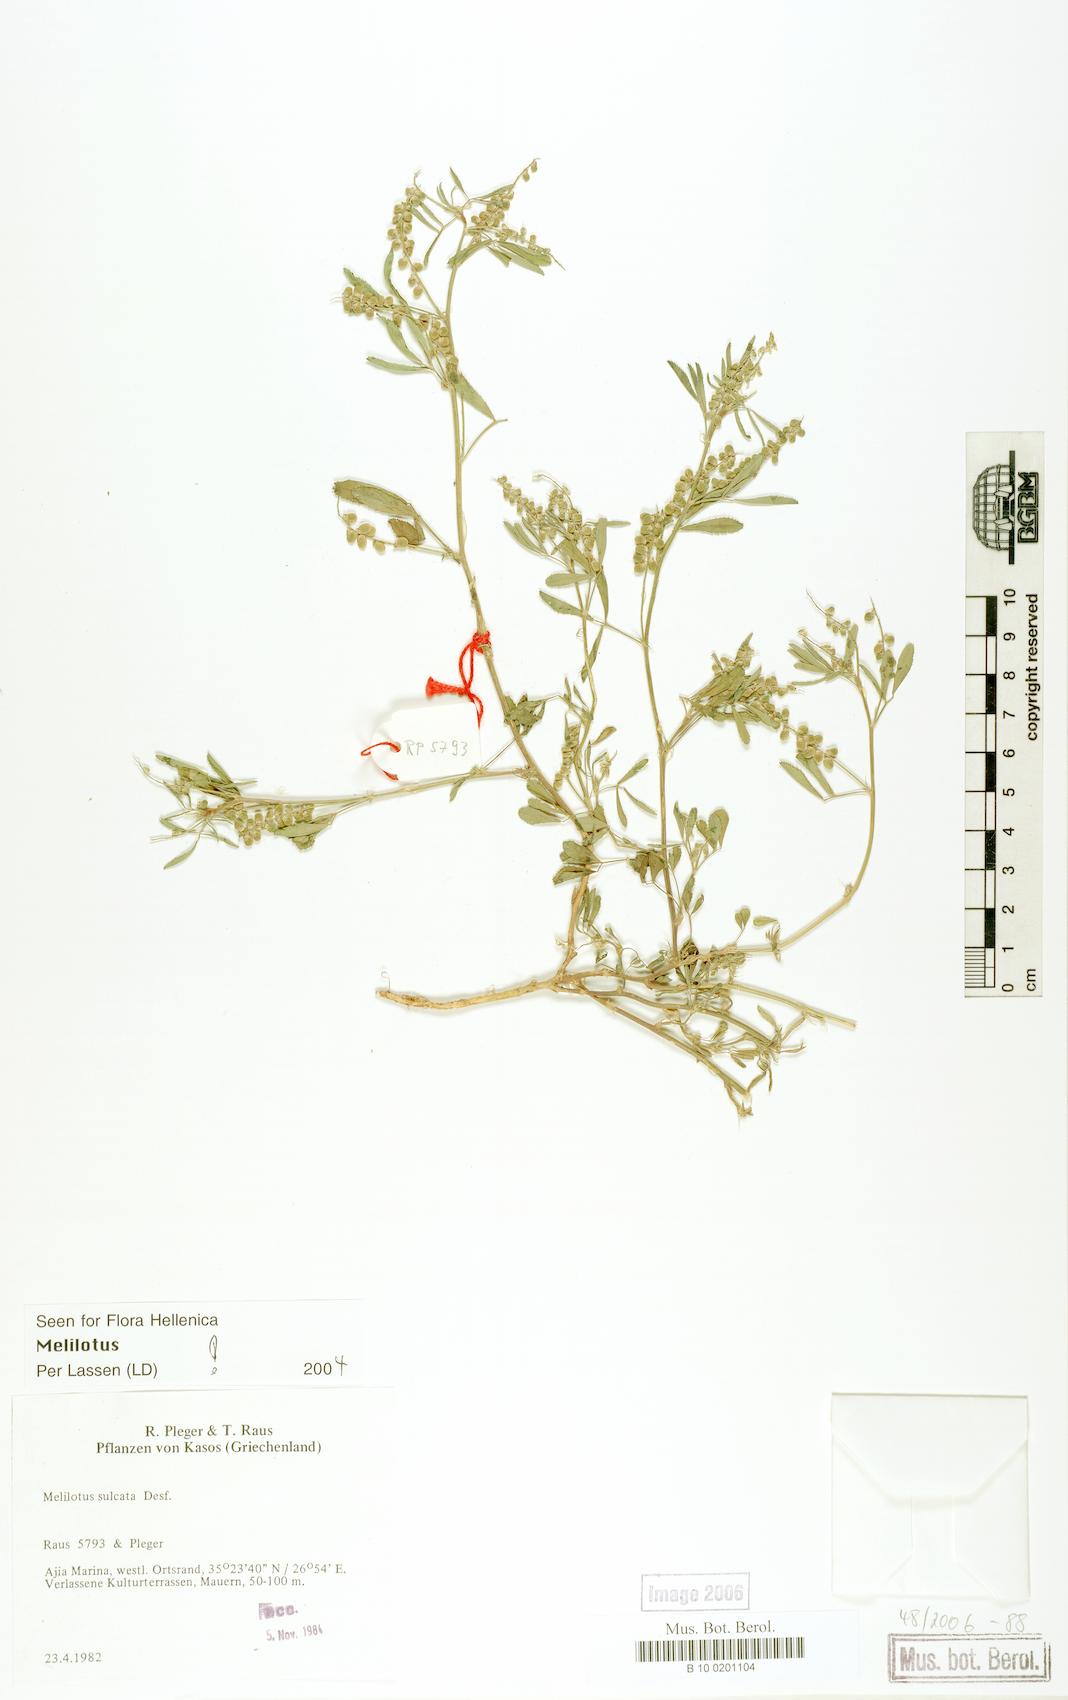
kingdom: Plantae
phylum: Tracheophyta
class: Magnoliopsida
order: Fabales
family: Fabaceae
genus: Melilotus
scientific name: Melilotus sulcatus
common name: Furrowed melilot
